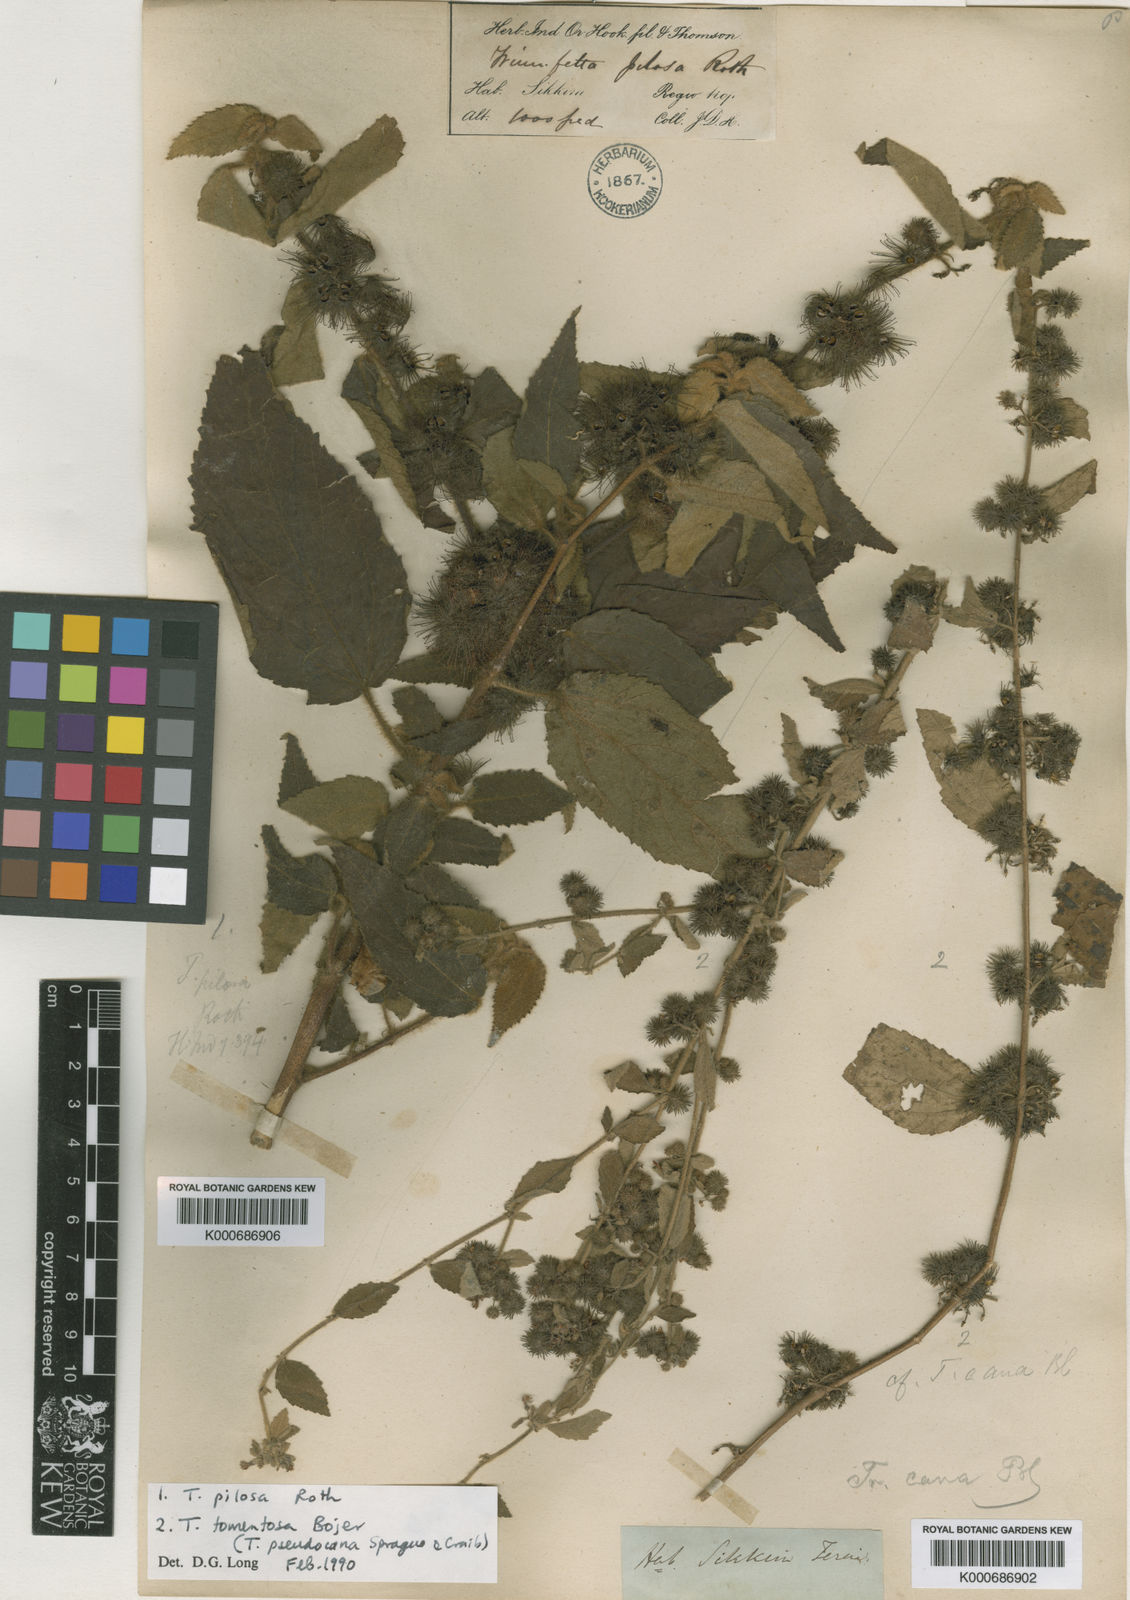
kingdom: Plantae
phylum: Tracheophyta
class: Magnoliopsida
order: Malvales
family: Malvaceae
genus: Triumfetta
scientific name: Triumfetta obliqua
